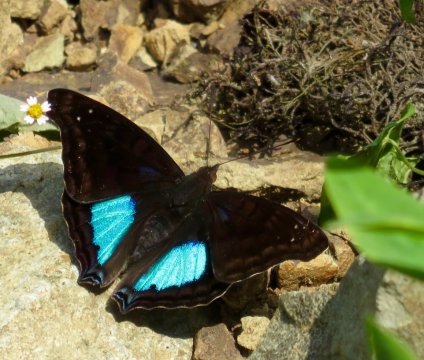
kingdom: Animalia
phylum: Arthropoda
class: Insecta
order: Lepidoptera
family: Nymphalidae
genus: Doxocopa
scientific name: Doxocopa cyane
